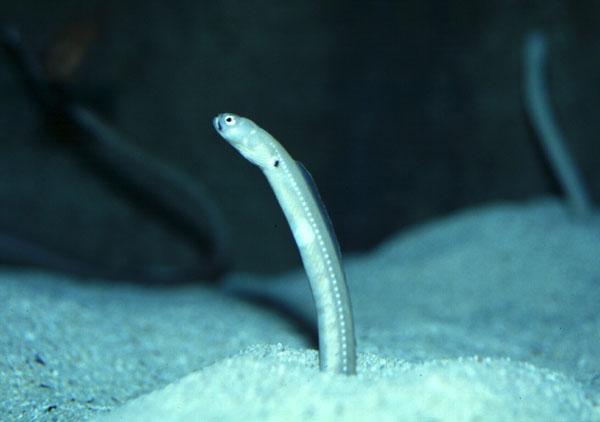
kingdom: Animalia
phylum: Chordata
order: Anguilliformes
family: Congridae
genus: Heteroconger
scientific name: Heteroconger digueti
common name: Cortez garden eel
